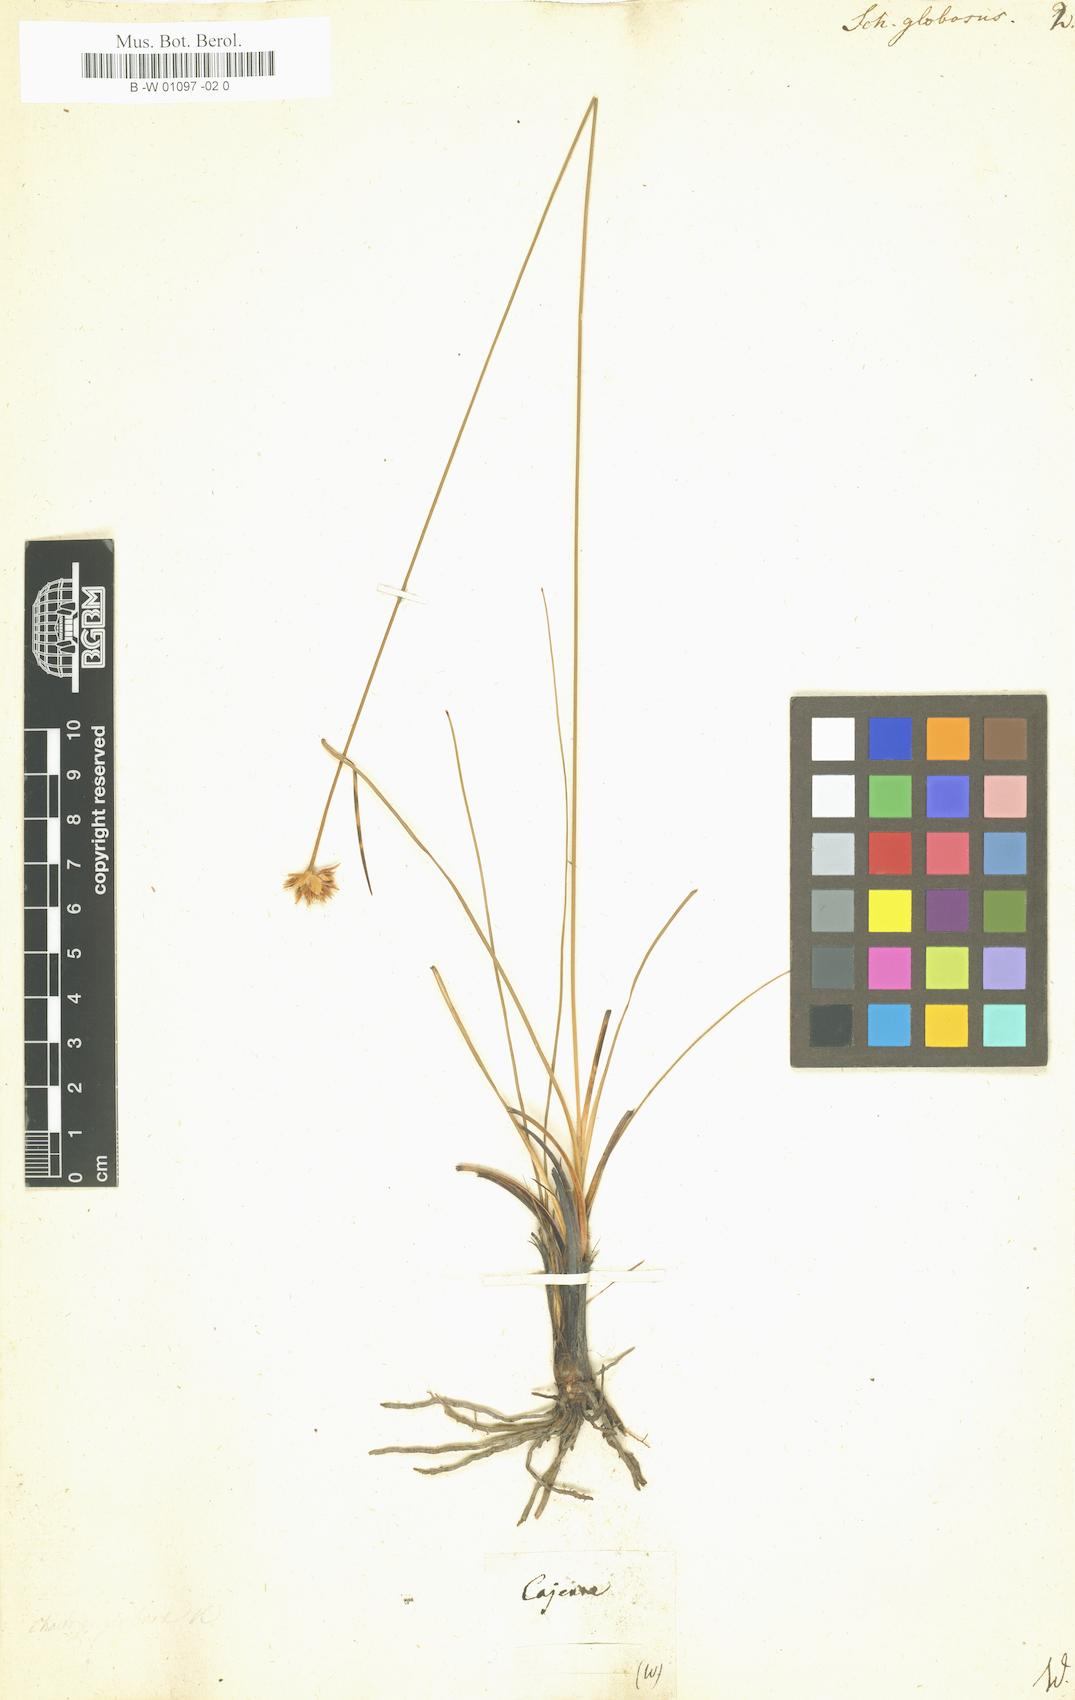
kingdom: Plantae
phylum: Tracheophyta
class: Liliopsida
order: Poales
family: Cyperaceae
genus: Rhynchospora
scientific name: Rhynchospora globosa
